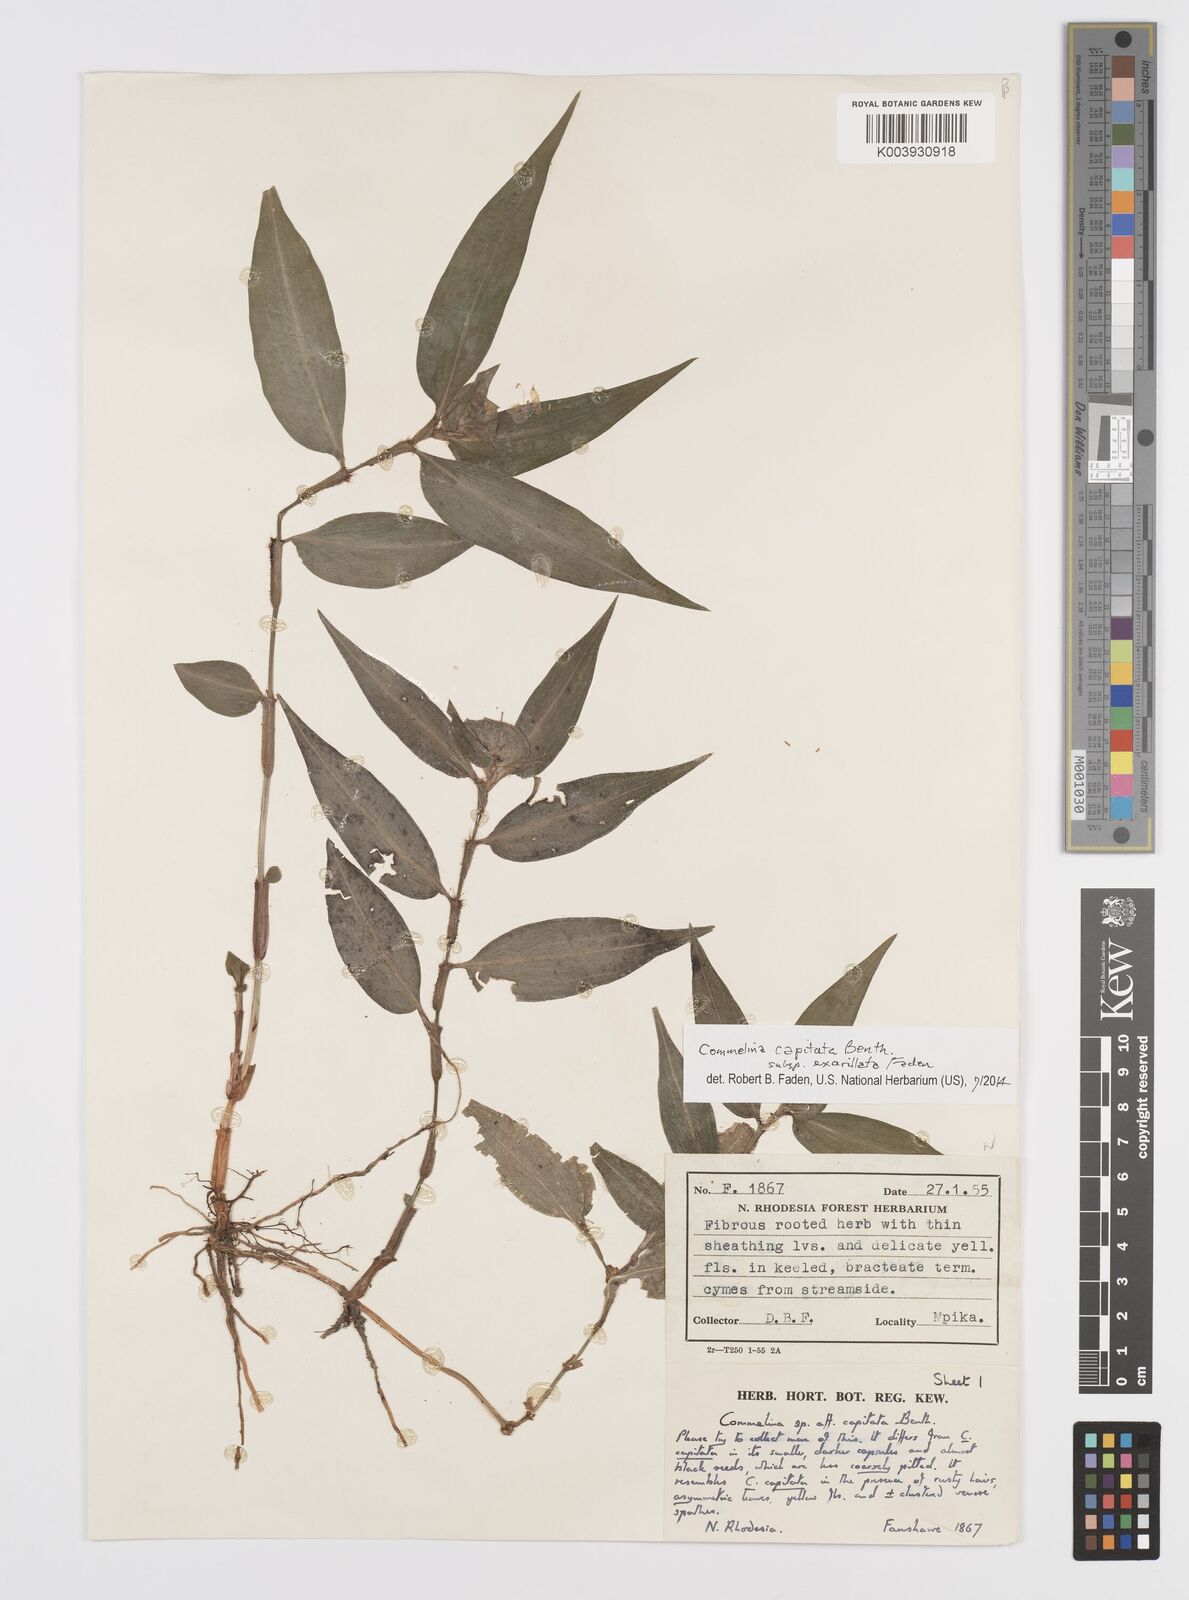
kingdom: Plantae
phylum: Tracheophyta
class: Liliopsida
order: Commelinales
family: Commelinaceae
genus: Commelina
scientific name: Commelina capitata
